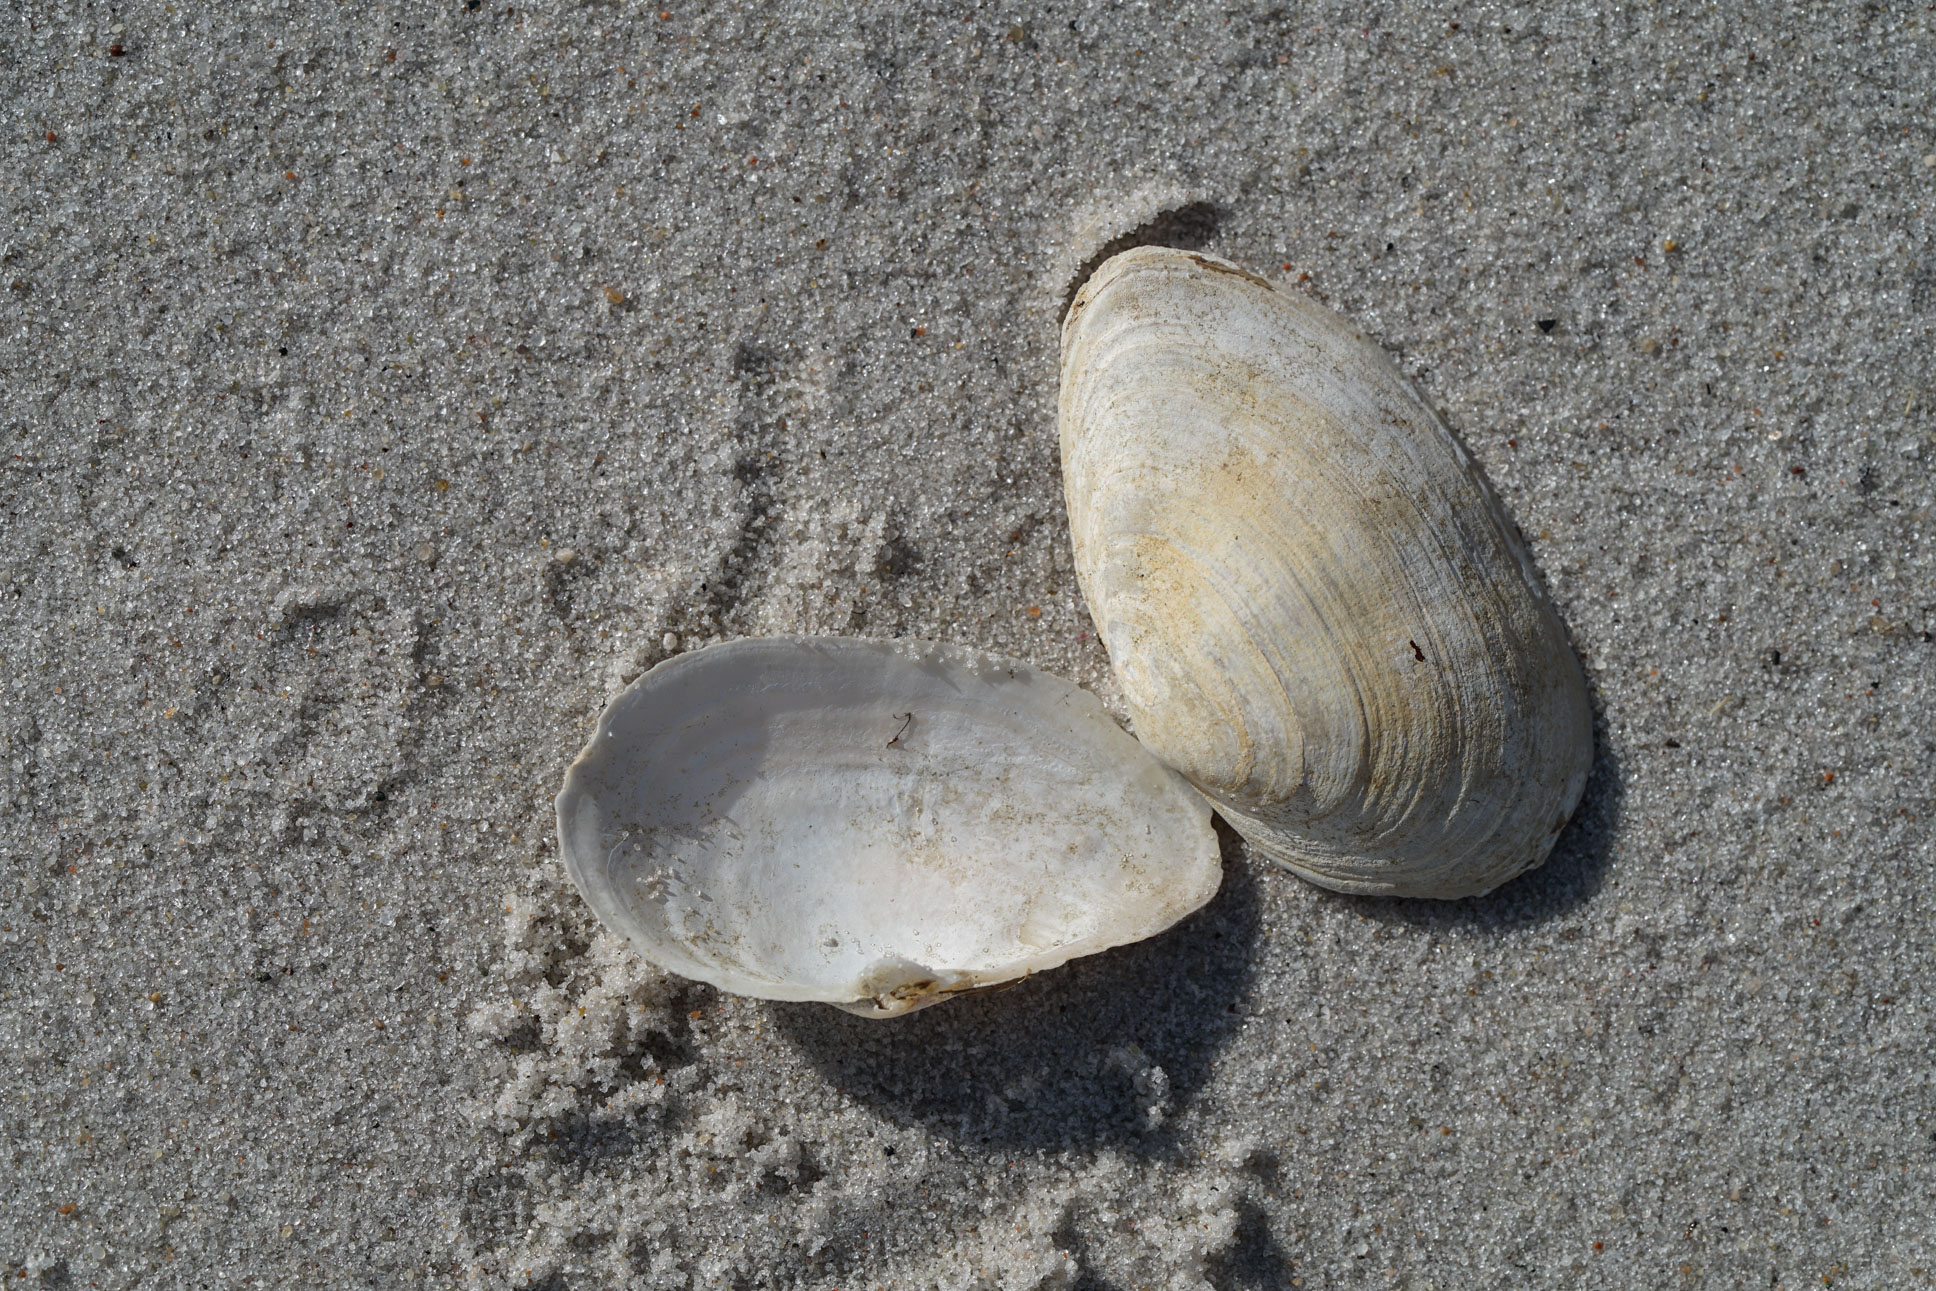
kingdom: Animalia
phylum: Mollusca
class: Bivalvia
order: Myida
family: Myidae
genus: Mya
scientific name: Mya arenaria
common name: Soft-shelled clam
